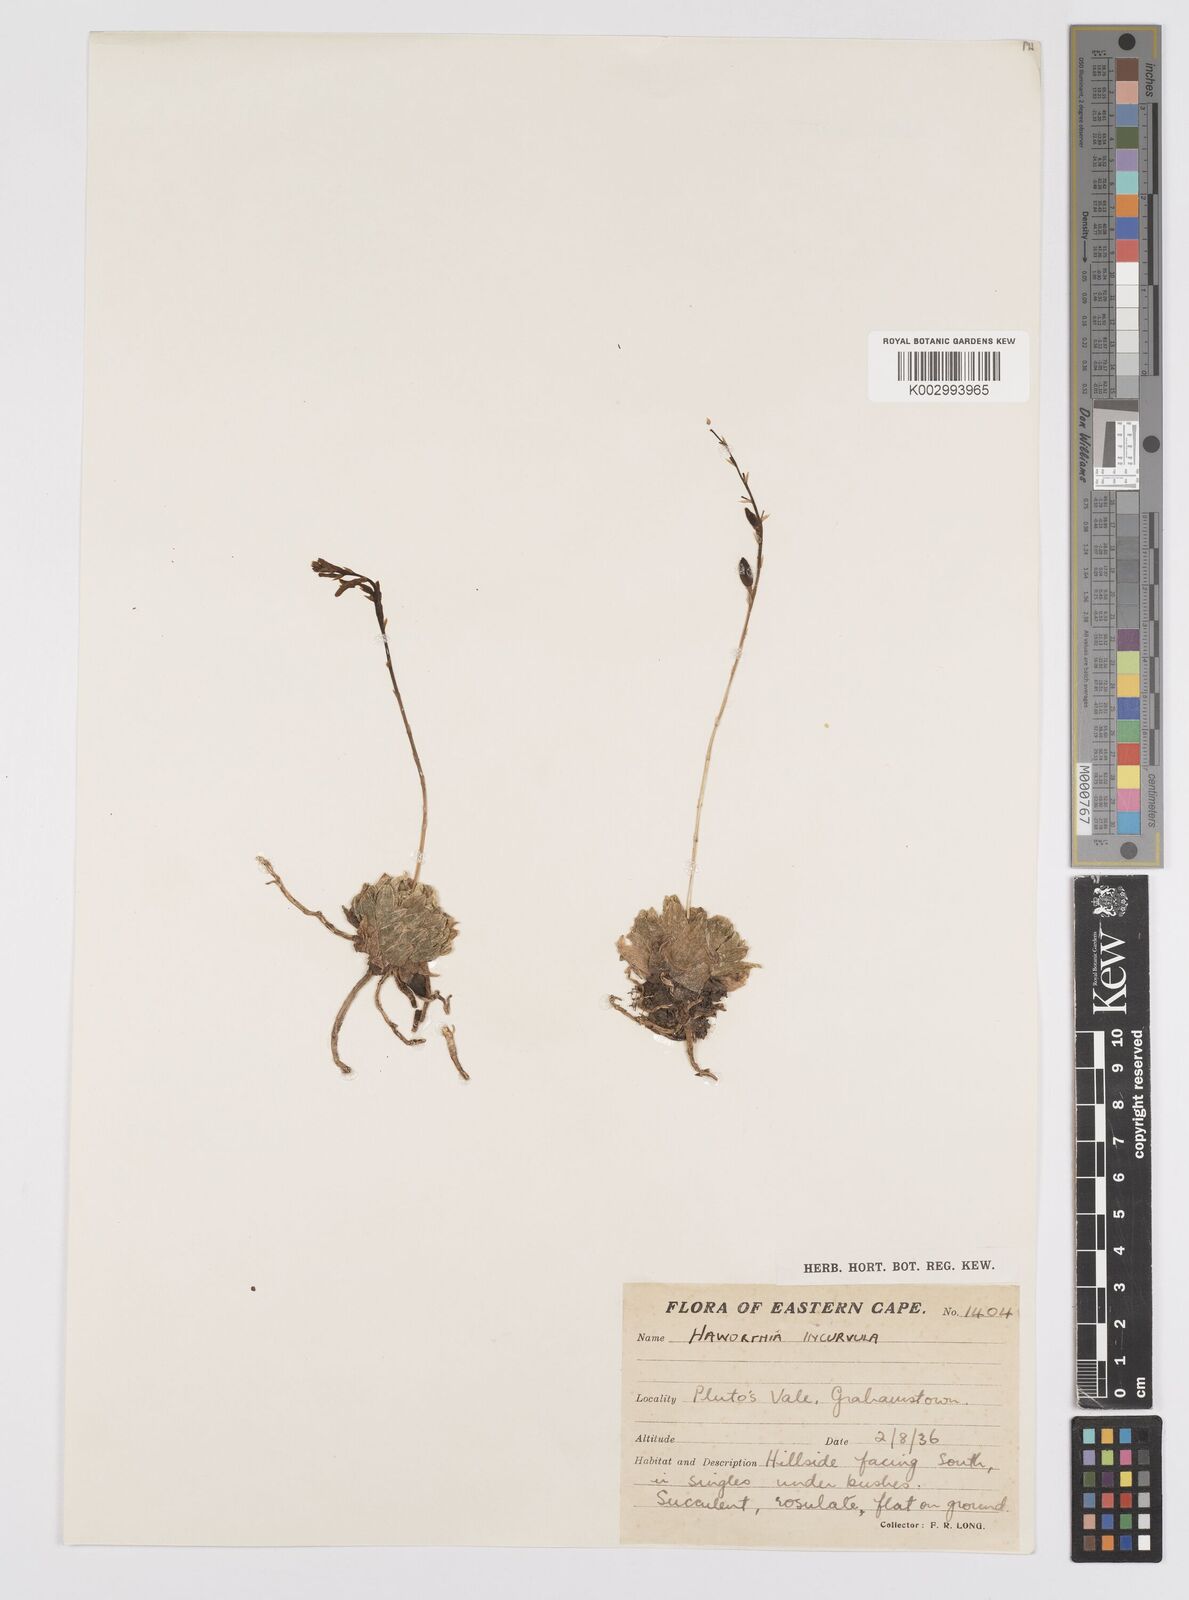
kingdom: Plantae
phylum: Tracheophyta
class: Liliopsida
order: Asparagales
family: Asphodelaceae
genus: Haworthia
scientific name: Haworthia cymbiformis
